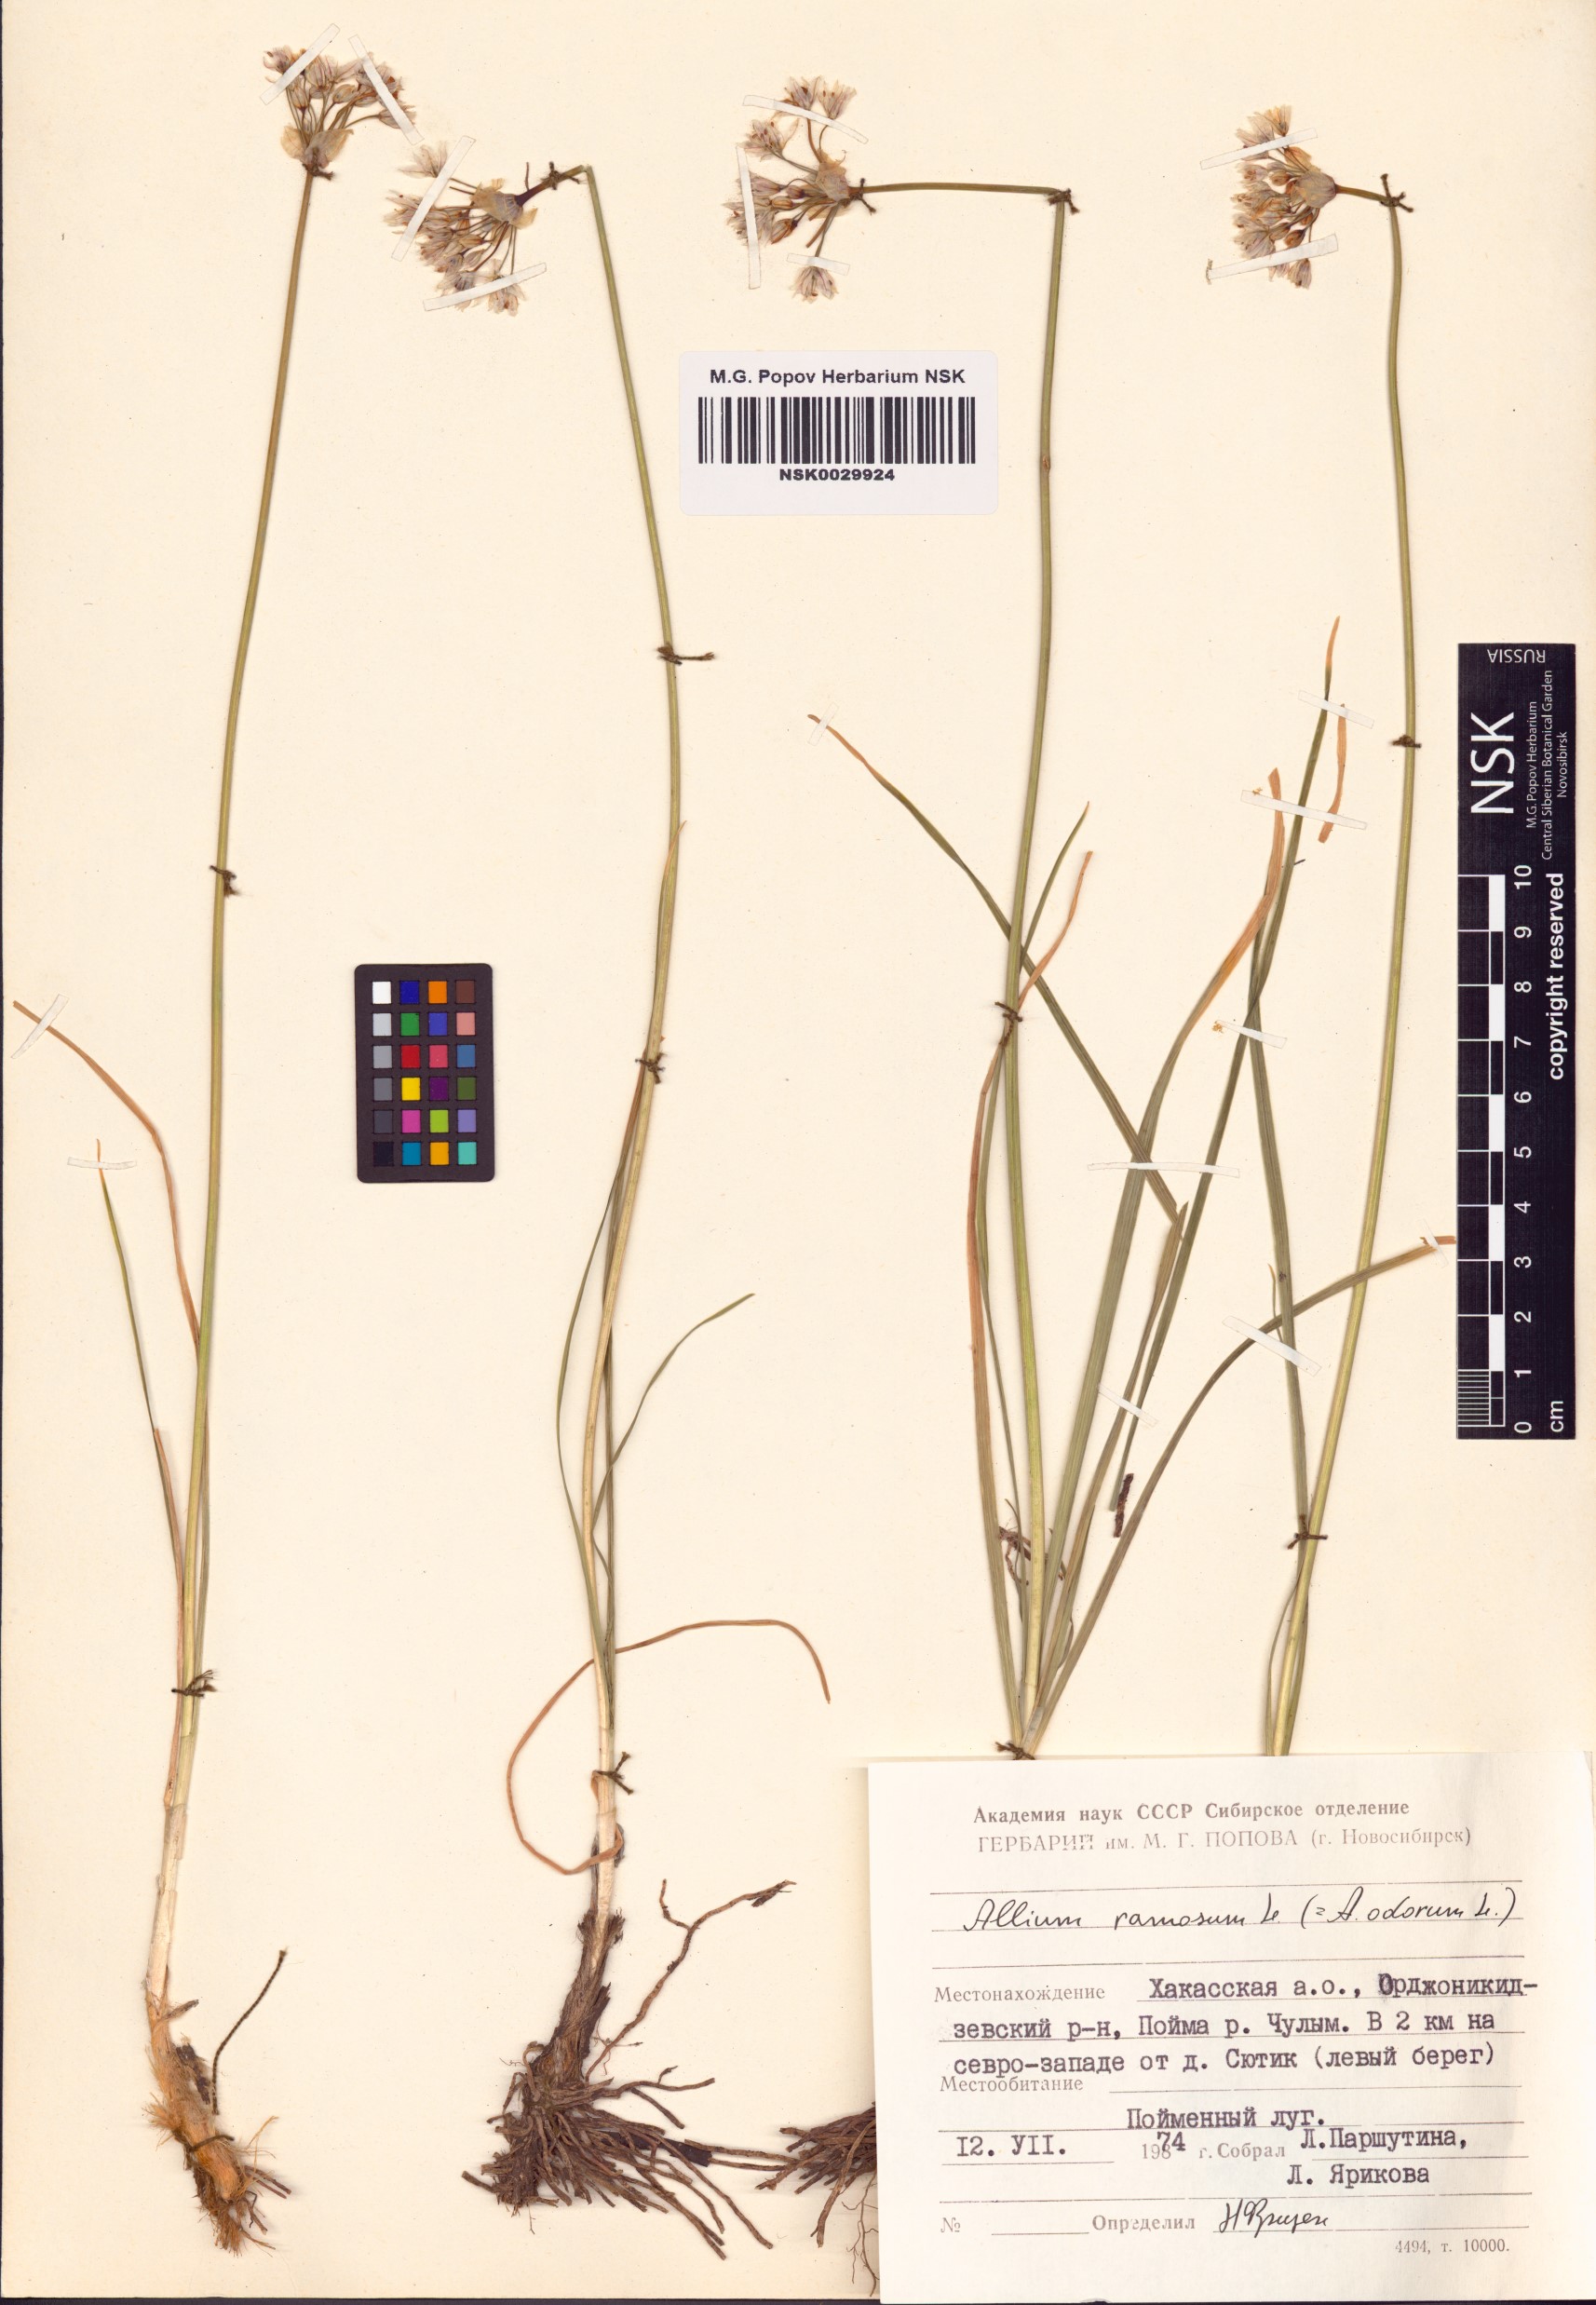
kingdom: Plantae
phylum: Tracheophyta
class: Liliopsida
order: Asparagales
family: Amaryllidaceae
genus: Allium
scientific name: Allium ramosum
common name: Fragrant garlic
